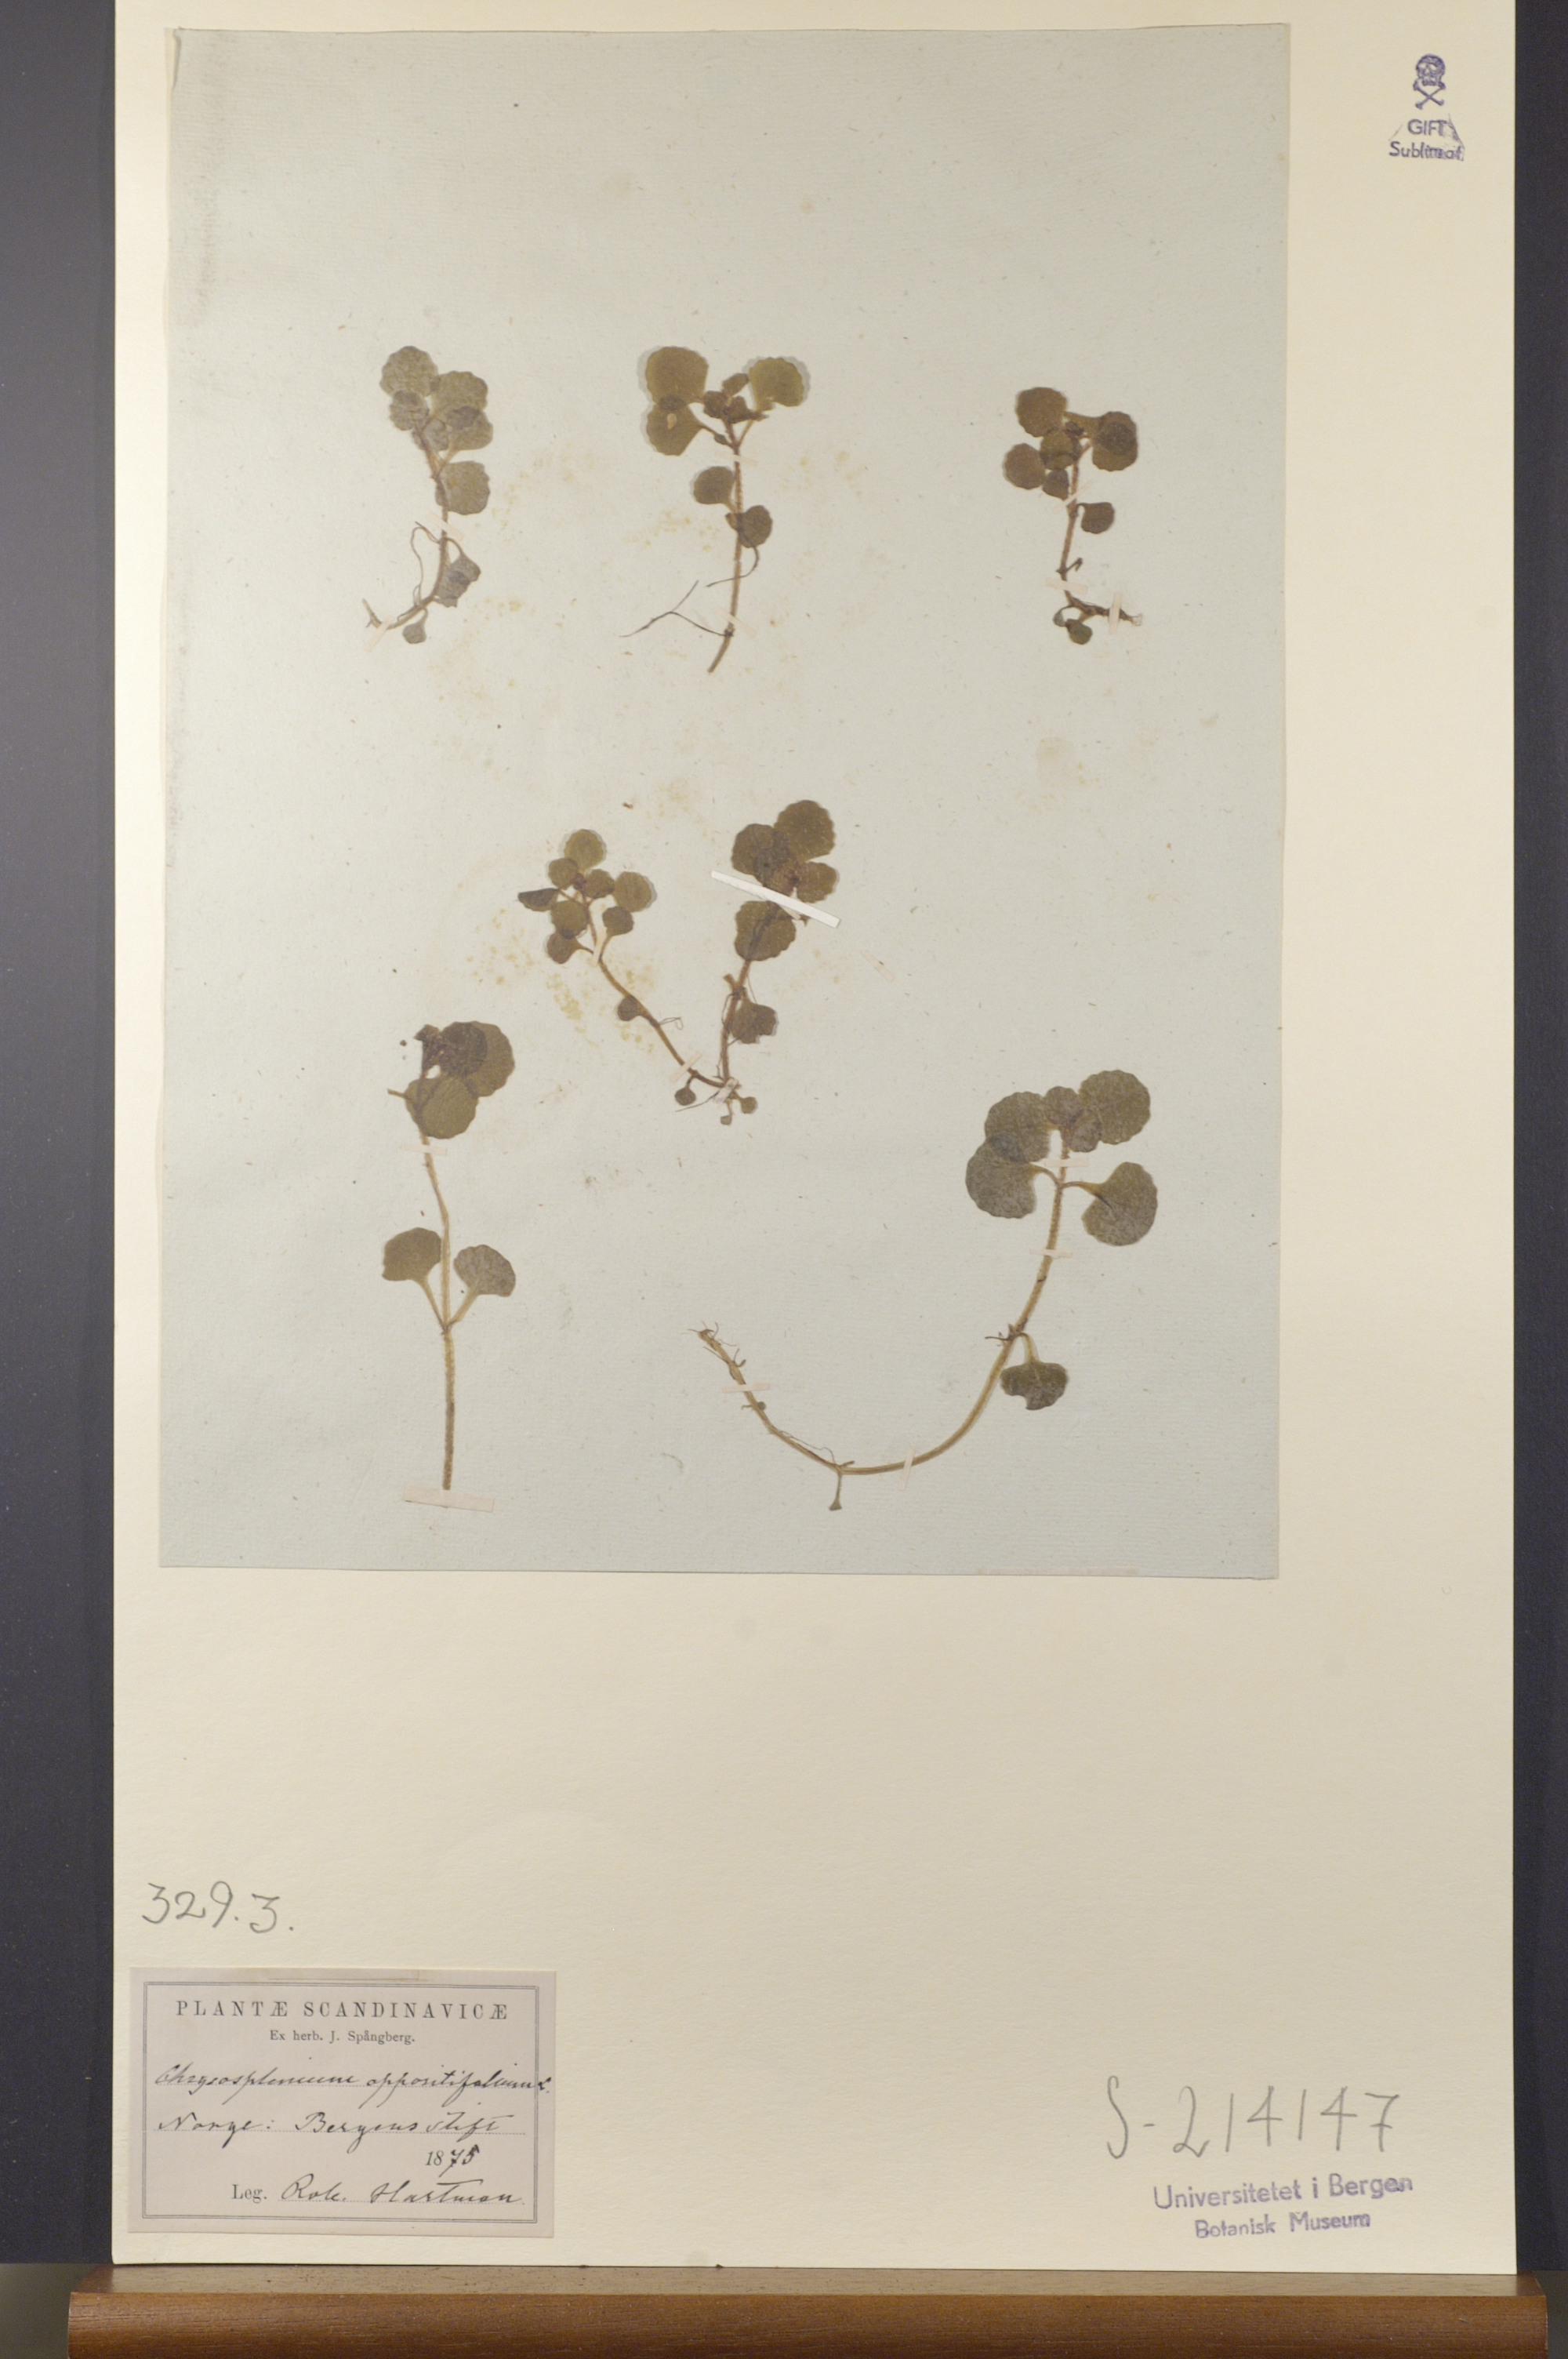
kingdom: Plantae
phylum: Tracheophyta
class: Magnoliopsida
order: Saxifragales
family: Saxifragaceae
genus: Chrysosplenium
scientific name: Chrysosplenium oppositifolium
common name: Opposite-leaved golden-saxifrage
